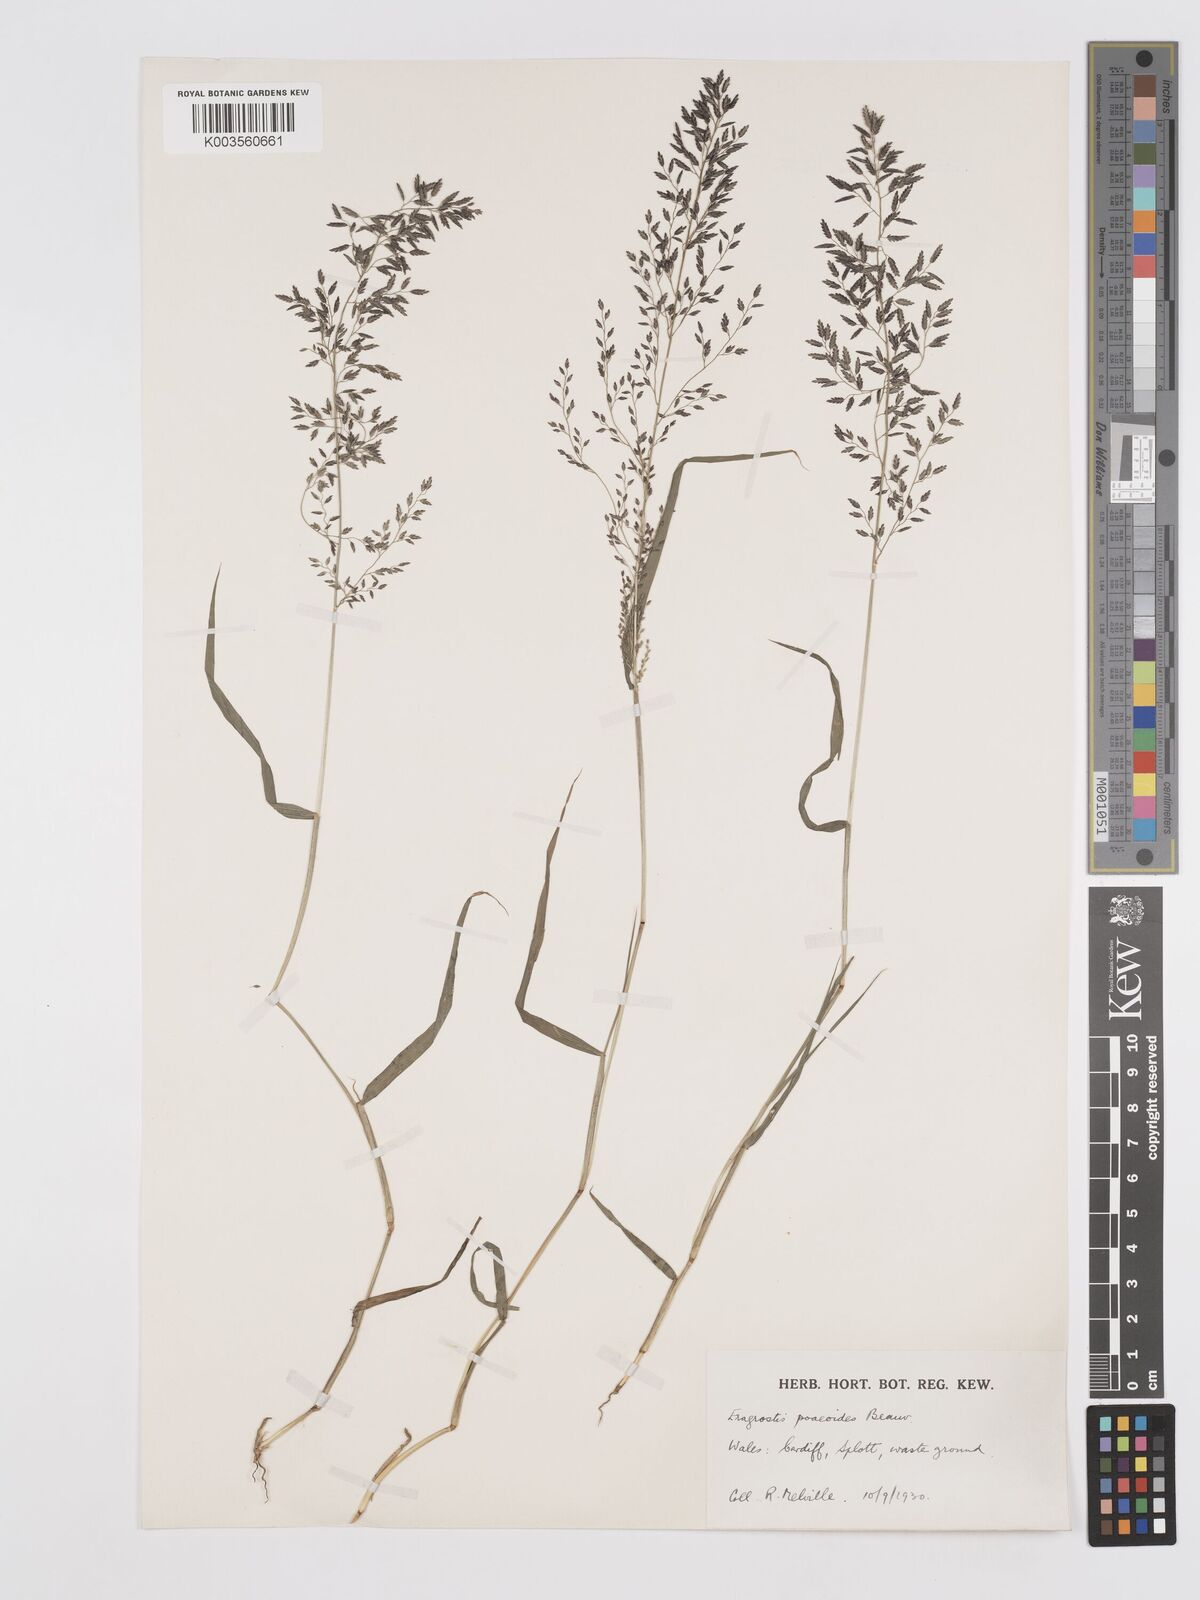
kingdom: Plantae
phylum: Tracheophyta
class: Liliopsida
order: Poales
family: Poaceae
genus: Eragrostis
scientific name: Eragrostis minor
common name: Small love-grass
